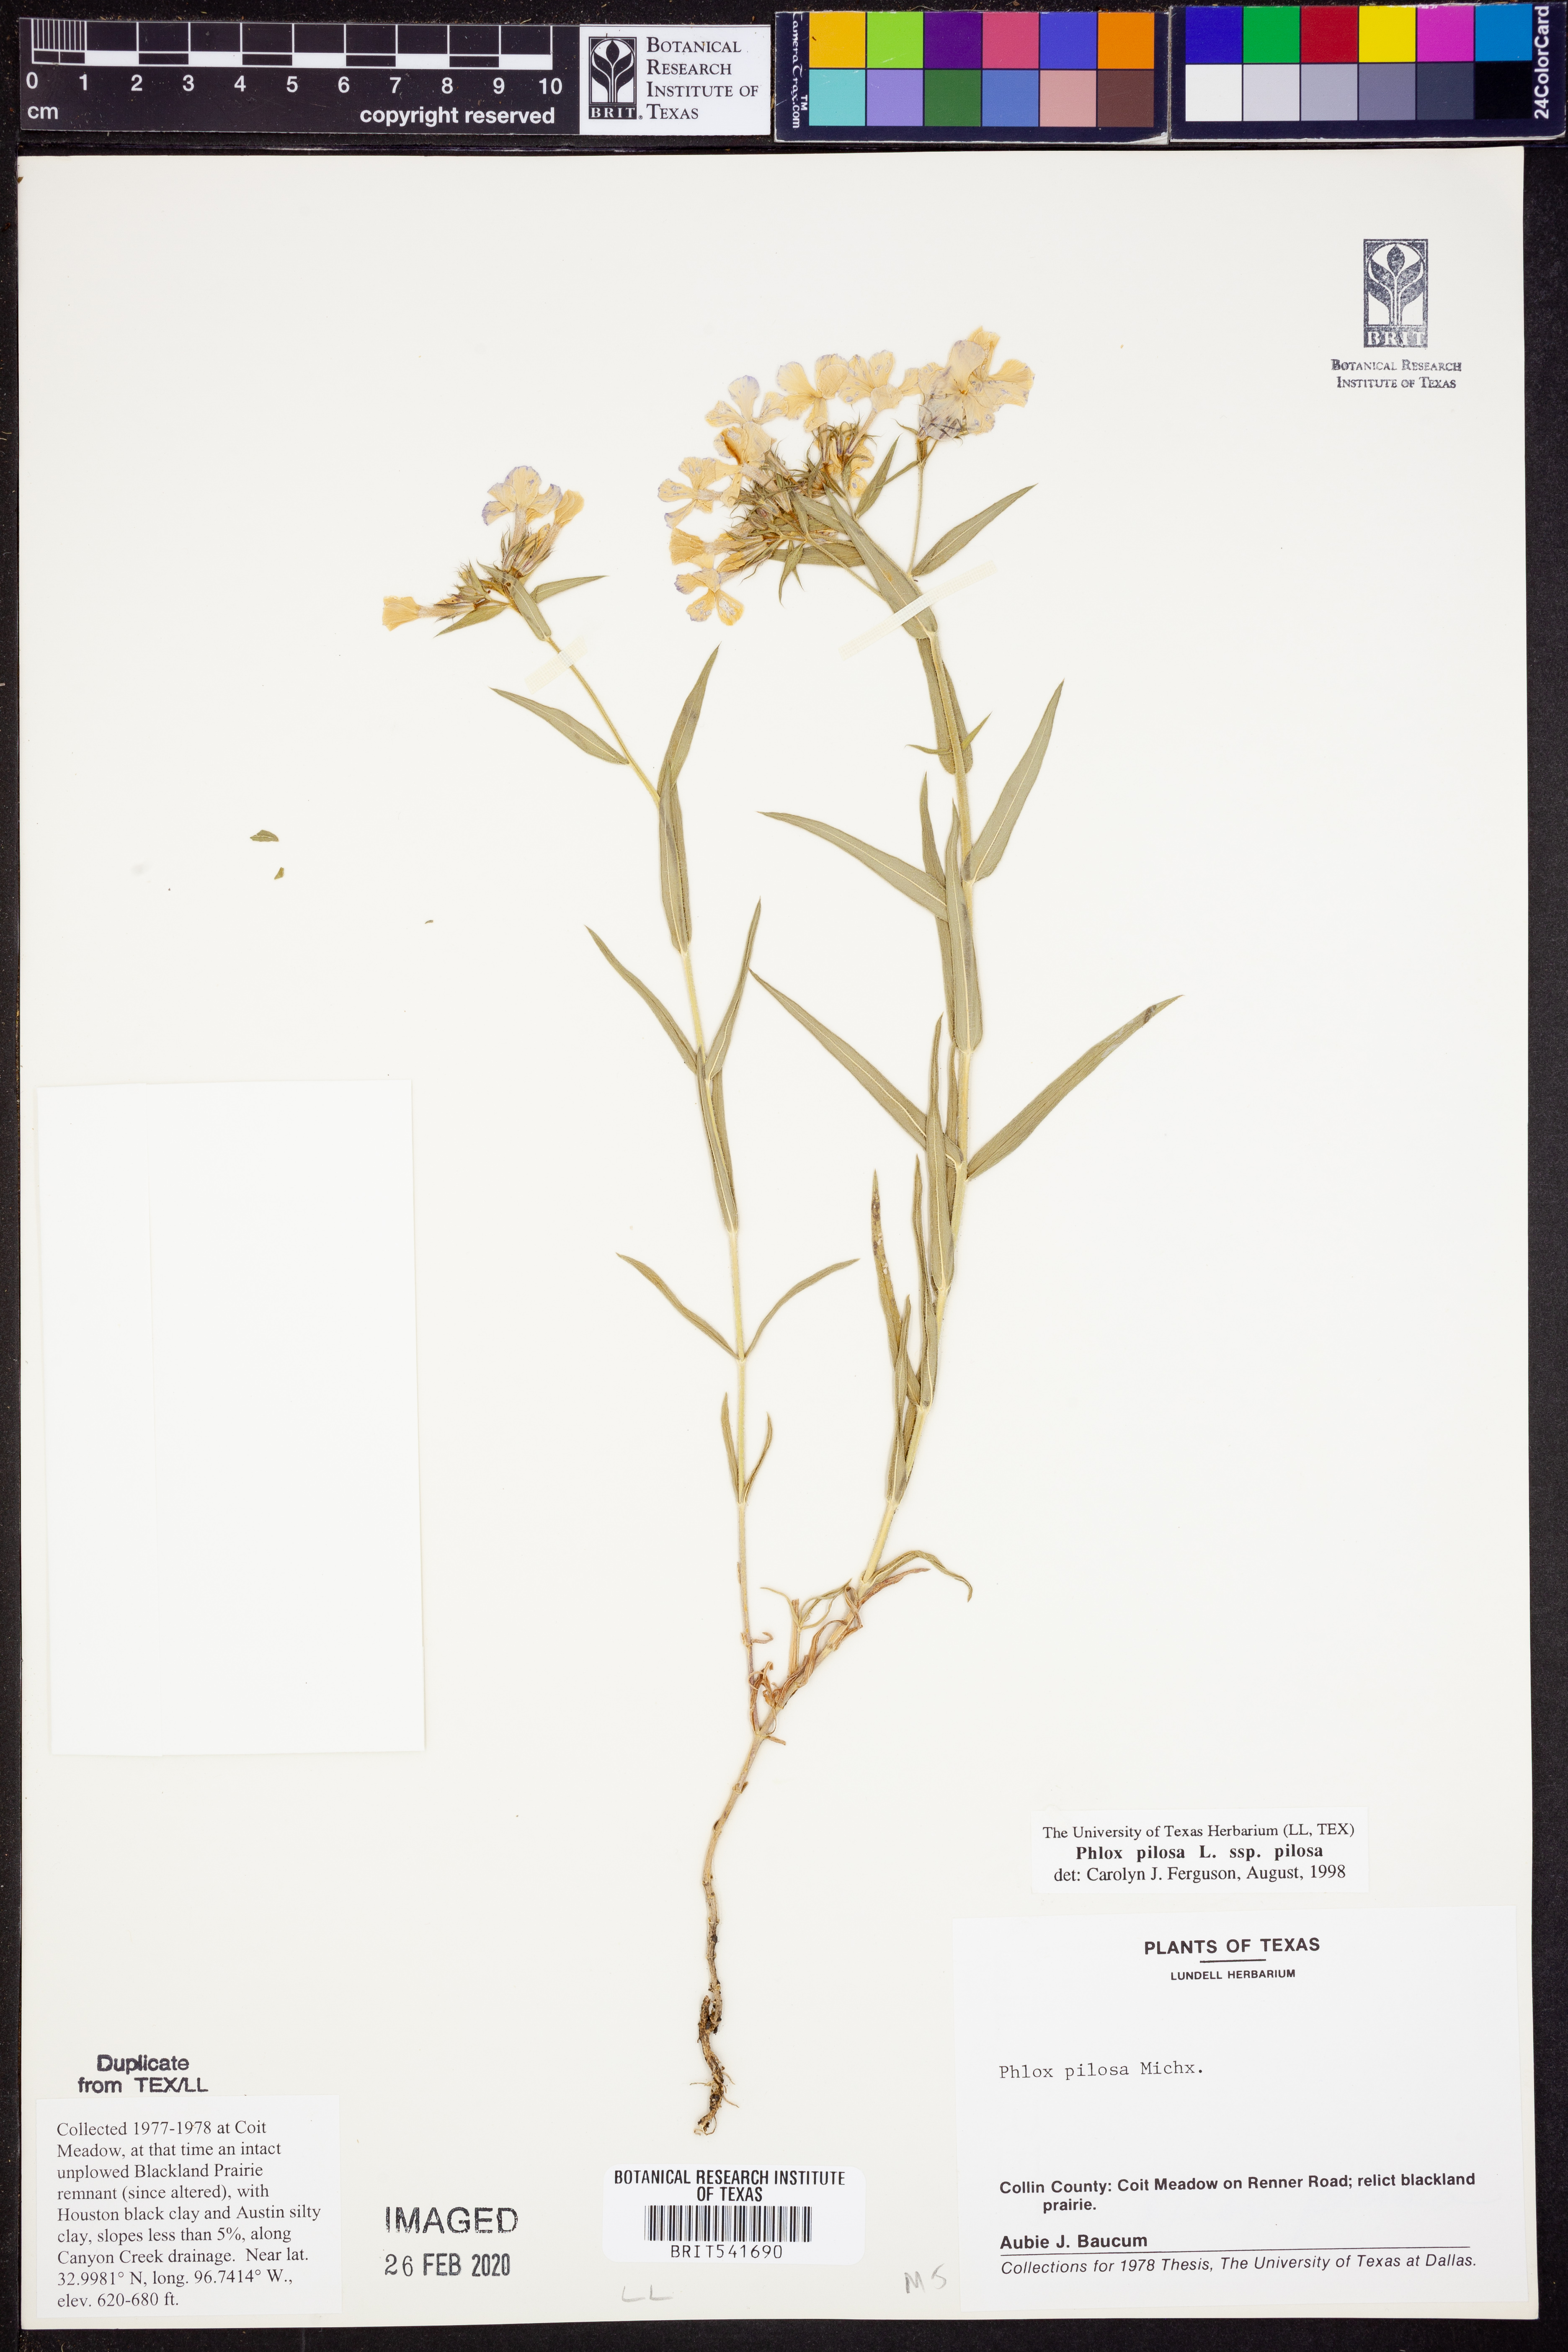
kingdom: Plantae
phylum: Tracheophyta
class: Magnoliopsida
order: Ericales
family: Polemoniaceae
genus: Phlox
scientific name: Phlox pilosa
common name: Prairie phlox
